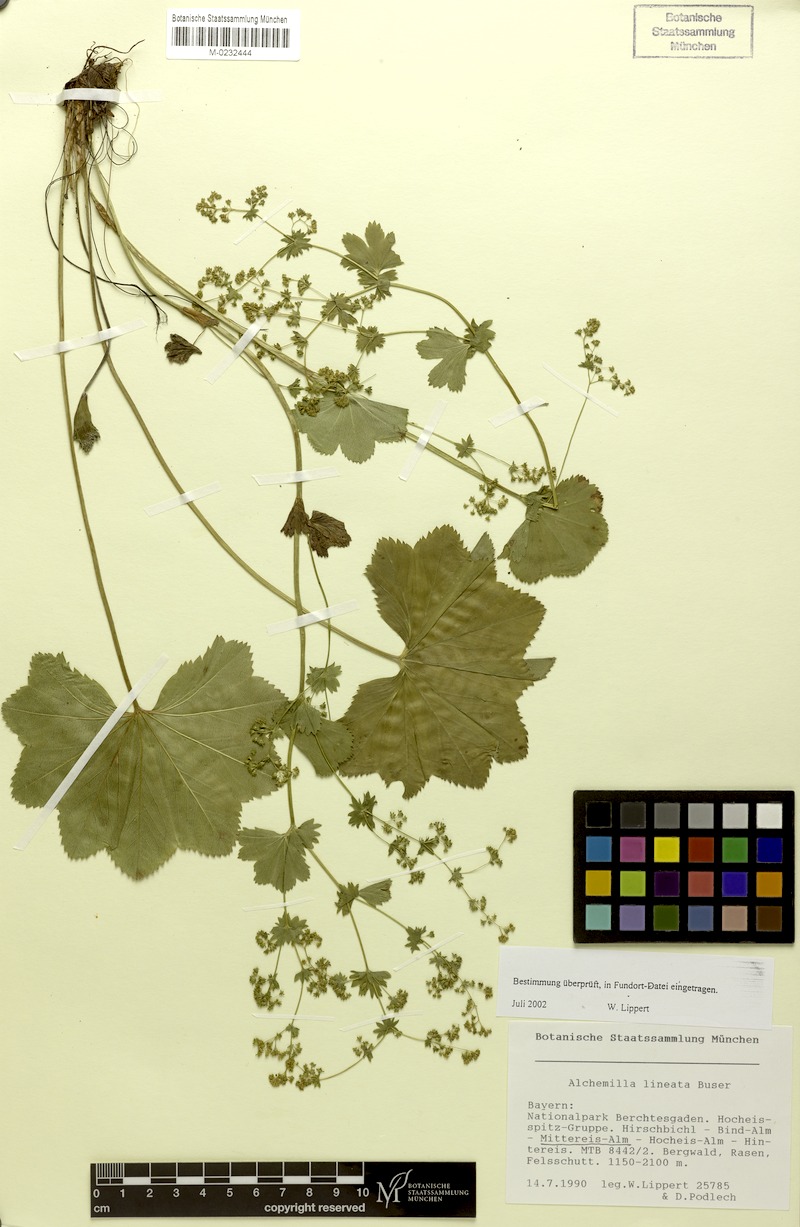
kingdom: Plantae
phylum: Tracheophyta
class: Magnoliopsida
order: Rosales
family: Rosaceae
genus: Alchemilla
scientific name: Alchemilla lineata
